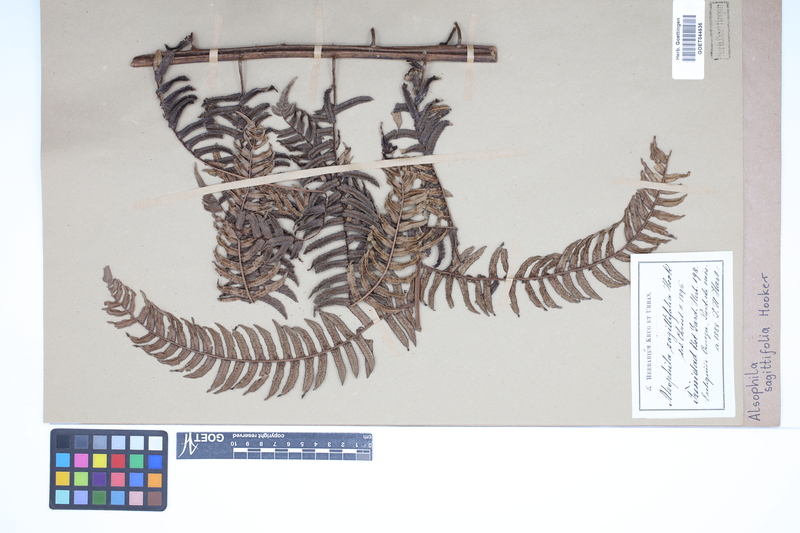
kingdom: Plantae
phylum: Tracheophyta
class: Polypodiopsida
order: Cyatheales
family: Cyatheaceae
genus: Cyathea
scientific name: Cyathea sagittifolia
